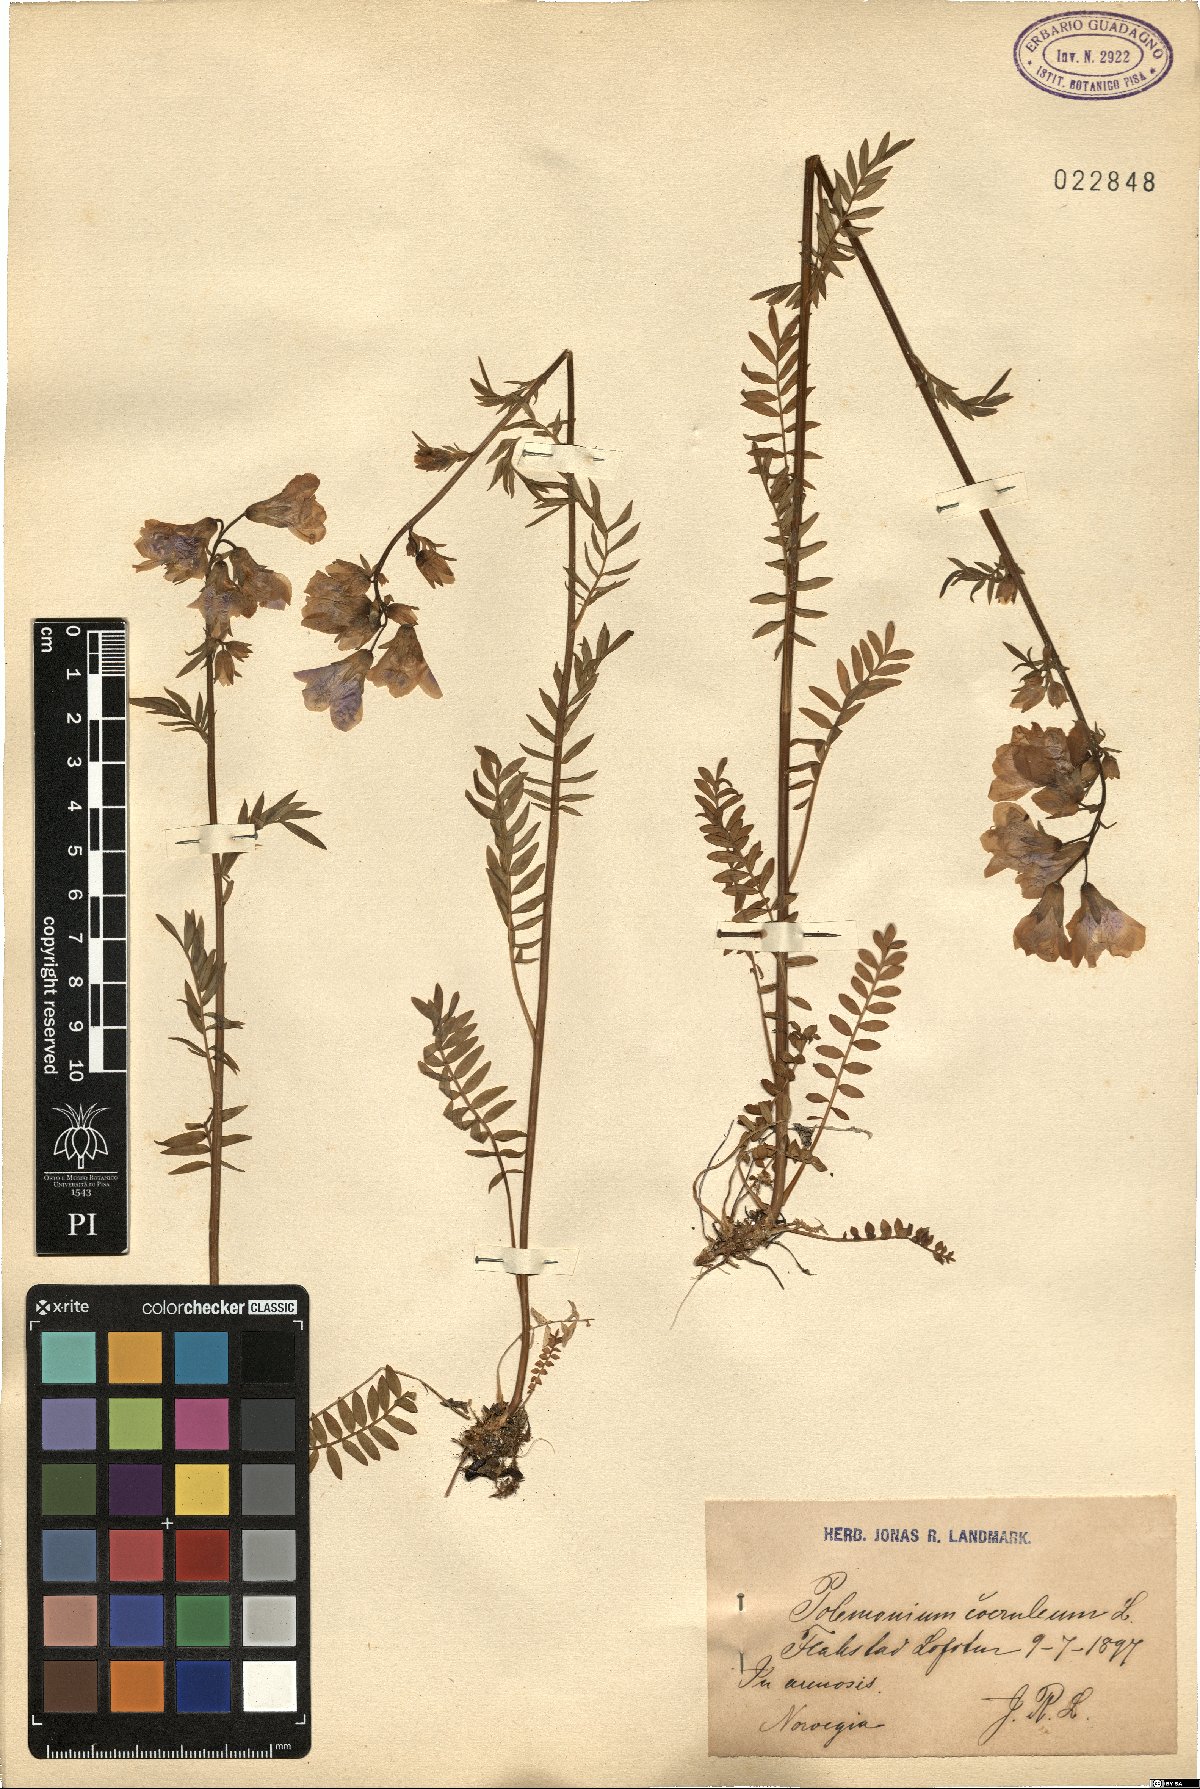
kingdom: Plantae
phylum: Tracheophyta
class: Magnoliopsida
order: Ericales
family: Polemoniaceae
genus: Polemonium
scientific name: Polemonium caeruleum
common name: Jacob's-ladder
